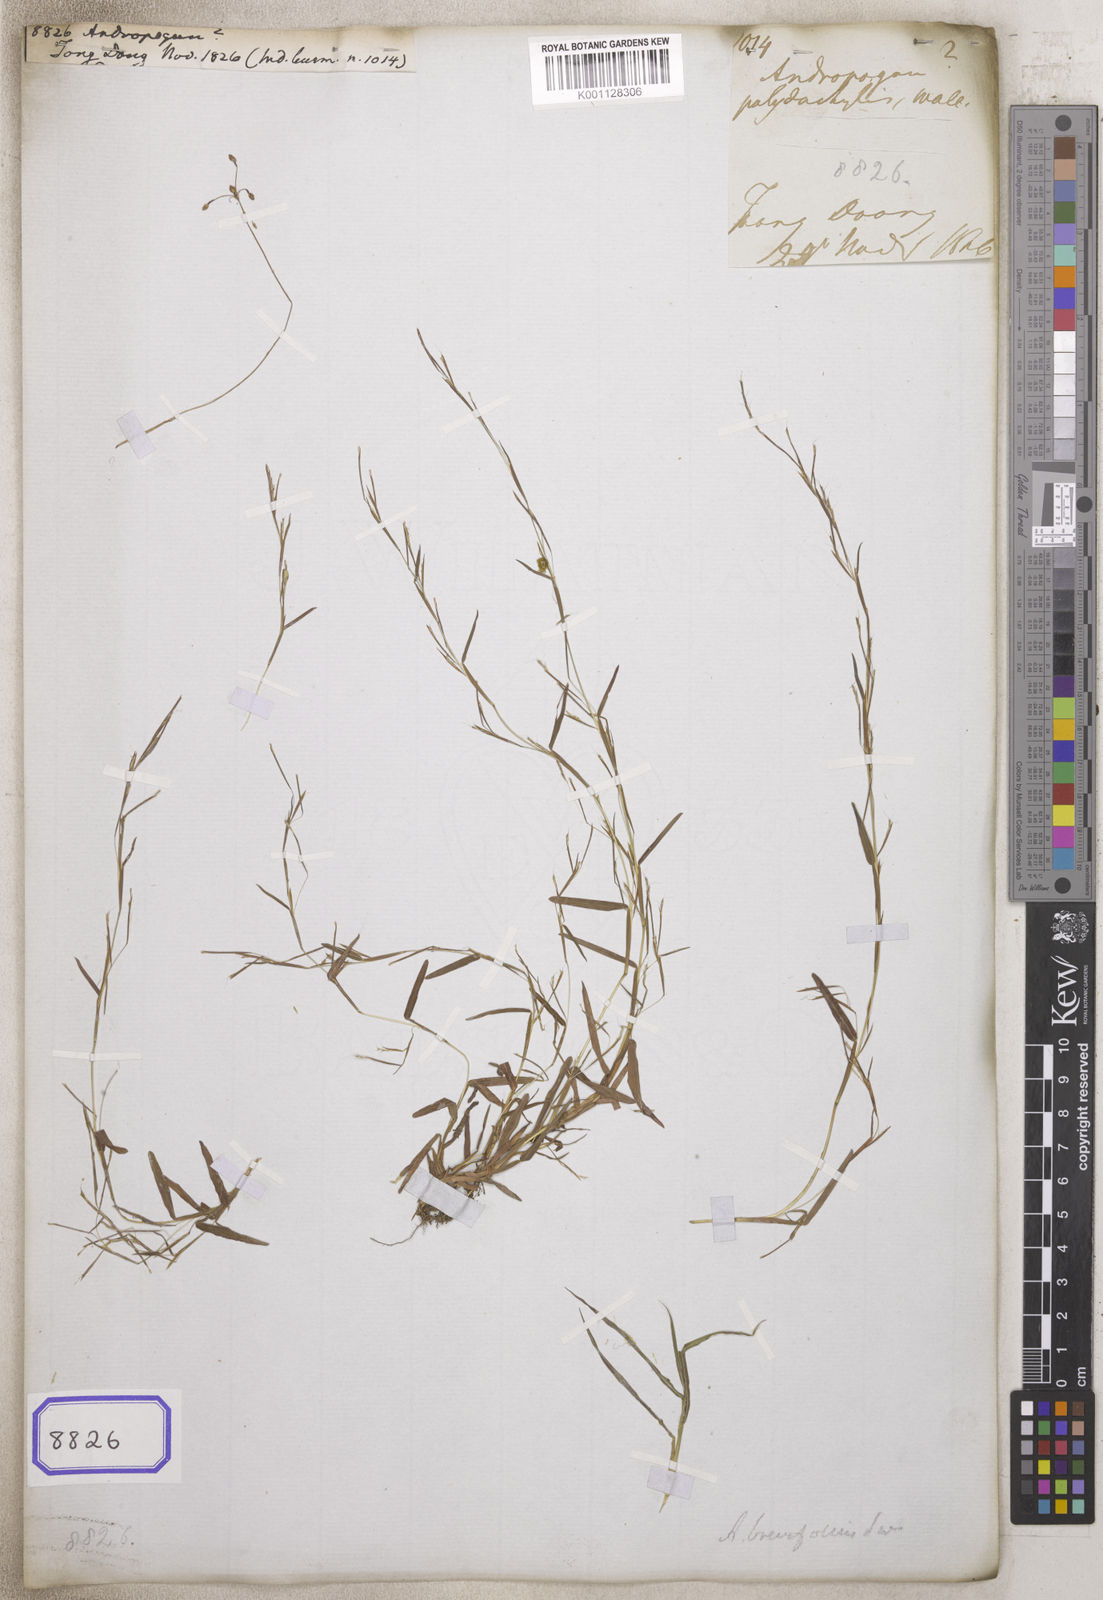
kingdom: Plantae
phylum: Tracheophyta
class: Liliopsida
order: Poales
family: Poaceae
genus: Andropogon
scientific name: Andropogon
